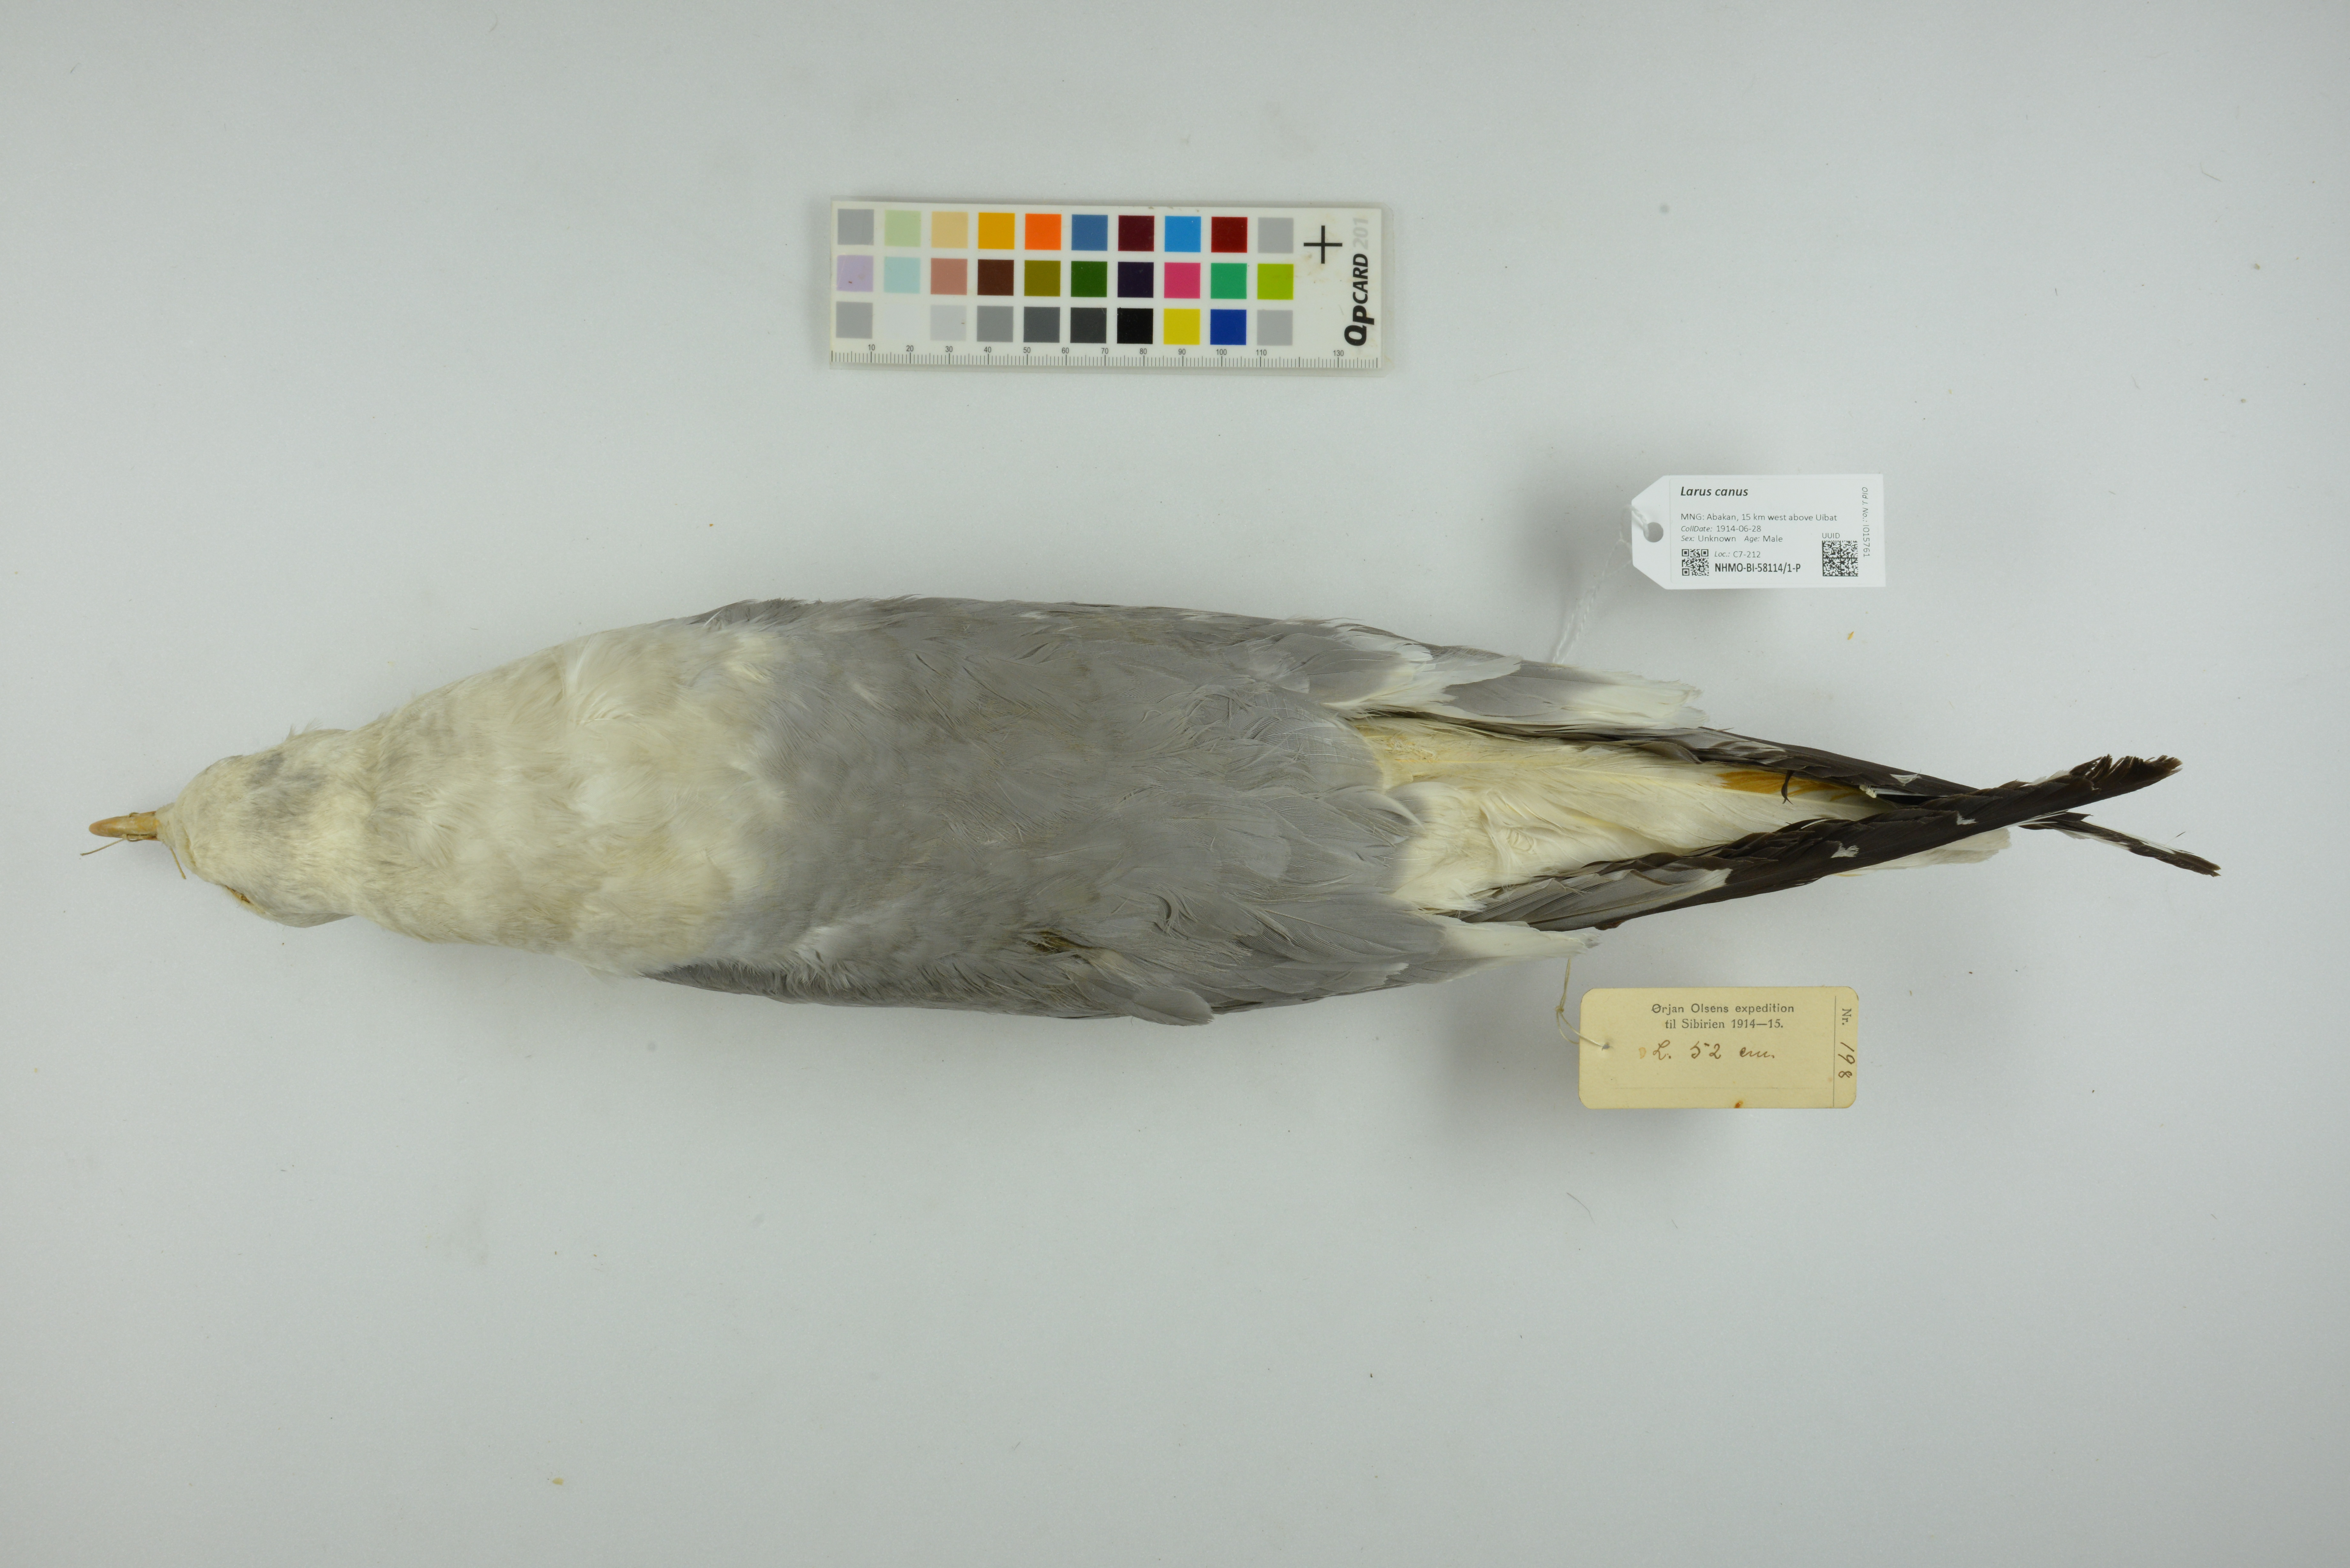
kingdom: Animalia
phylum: Chordata
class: Aves
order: Charadriiformes
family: Laridae
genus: Larus
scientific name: Larus canus
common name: Mew gull
